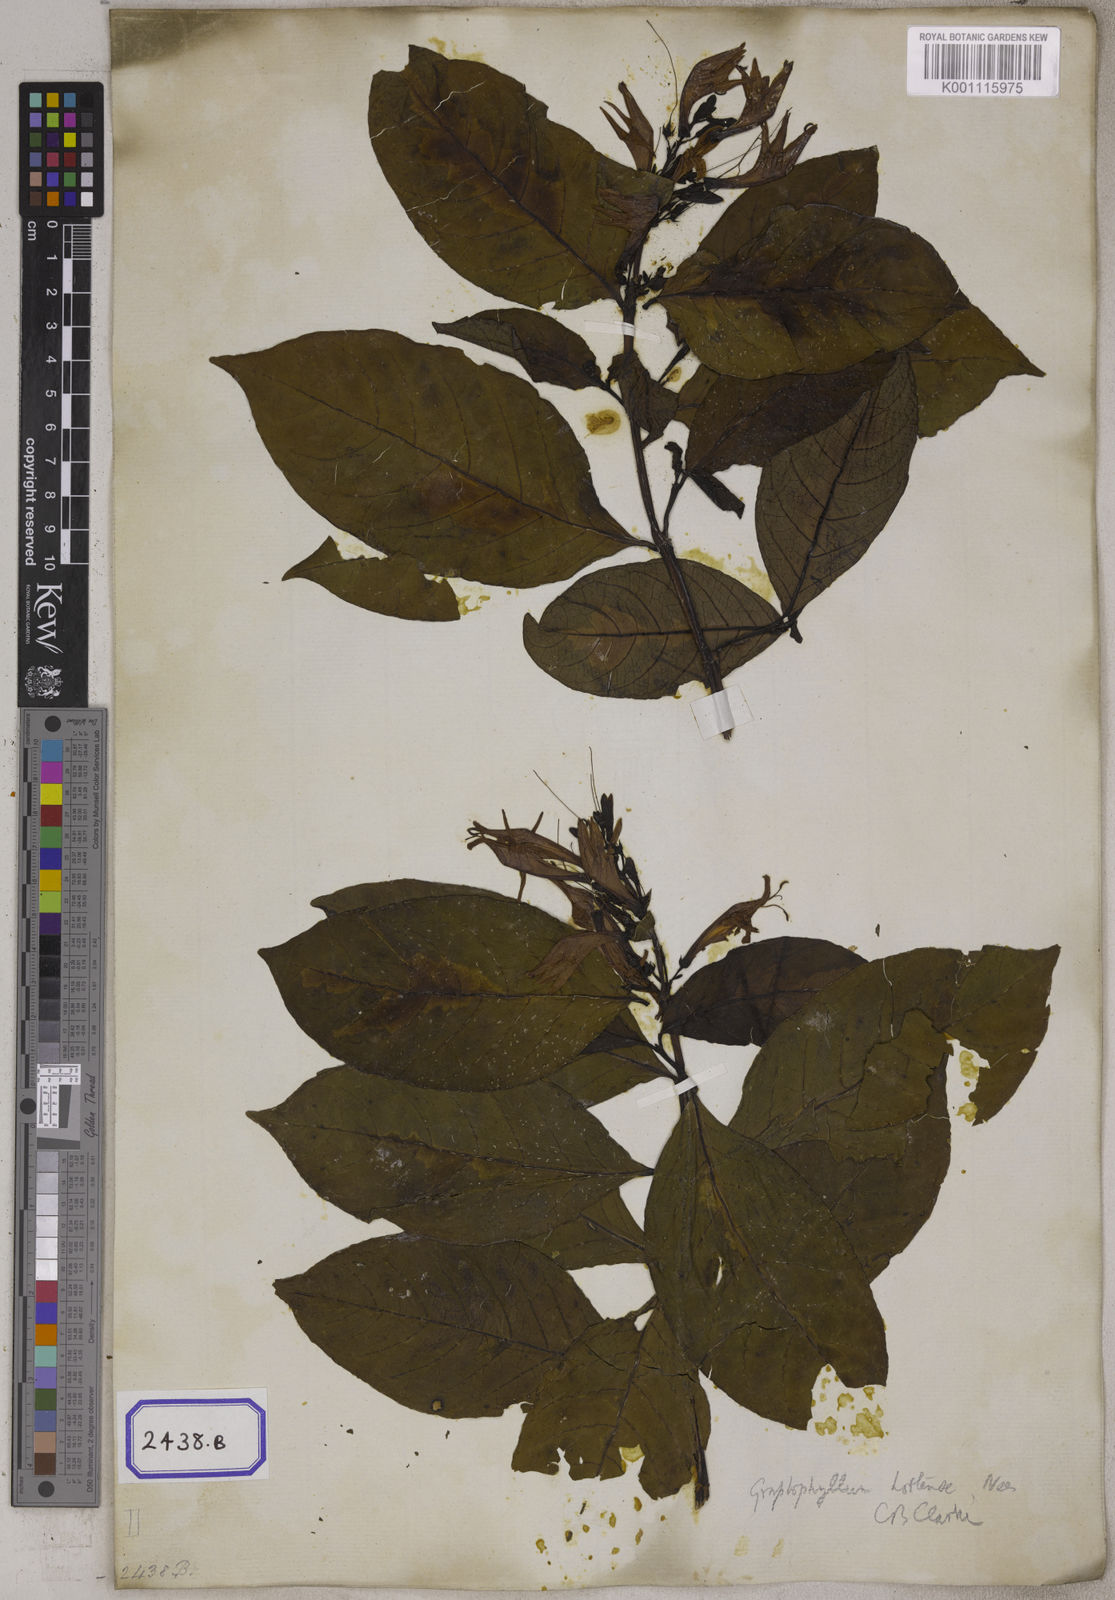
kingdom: Plantae
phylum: Tracheophyta
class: Magnoliopsida
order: Lamiales
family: Acanthaceae
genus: Graptophyllum
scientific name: Graptophyllum pictum
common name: Caricature-plant
